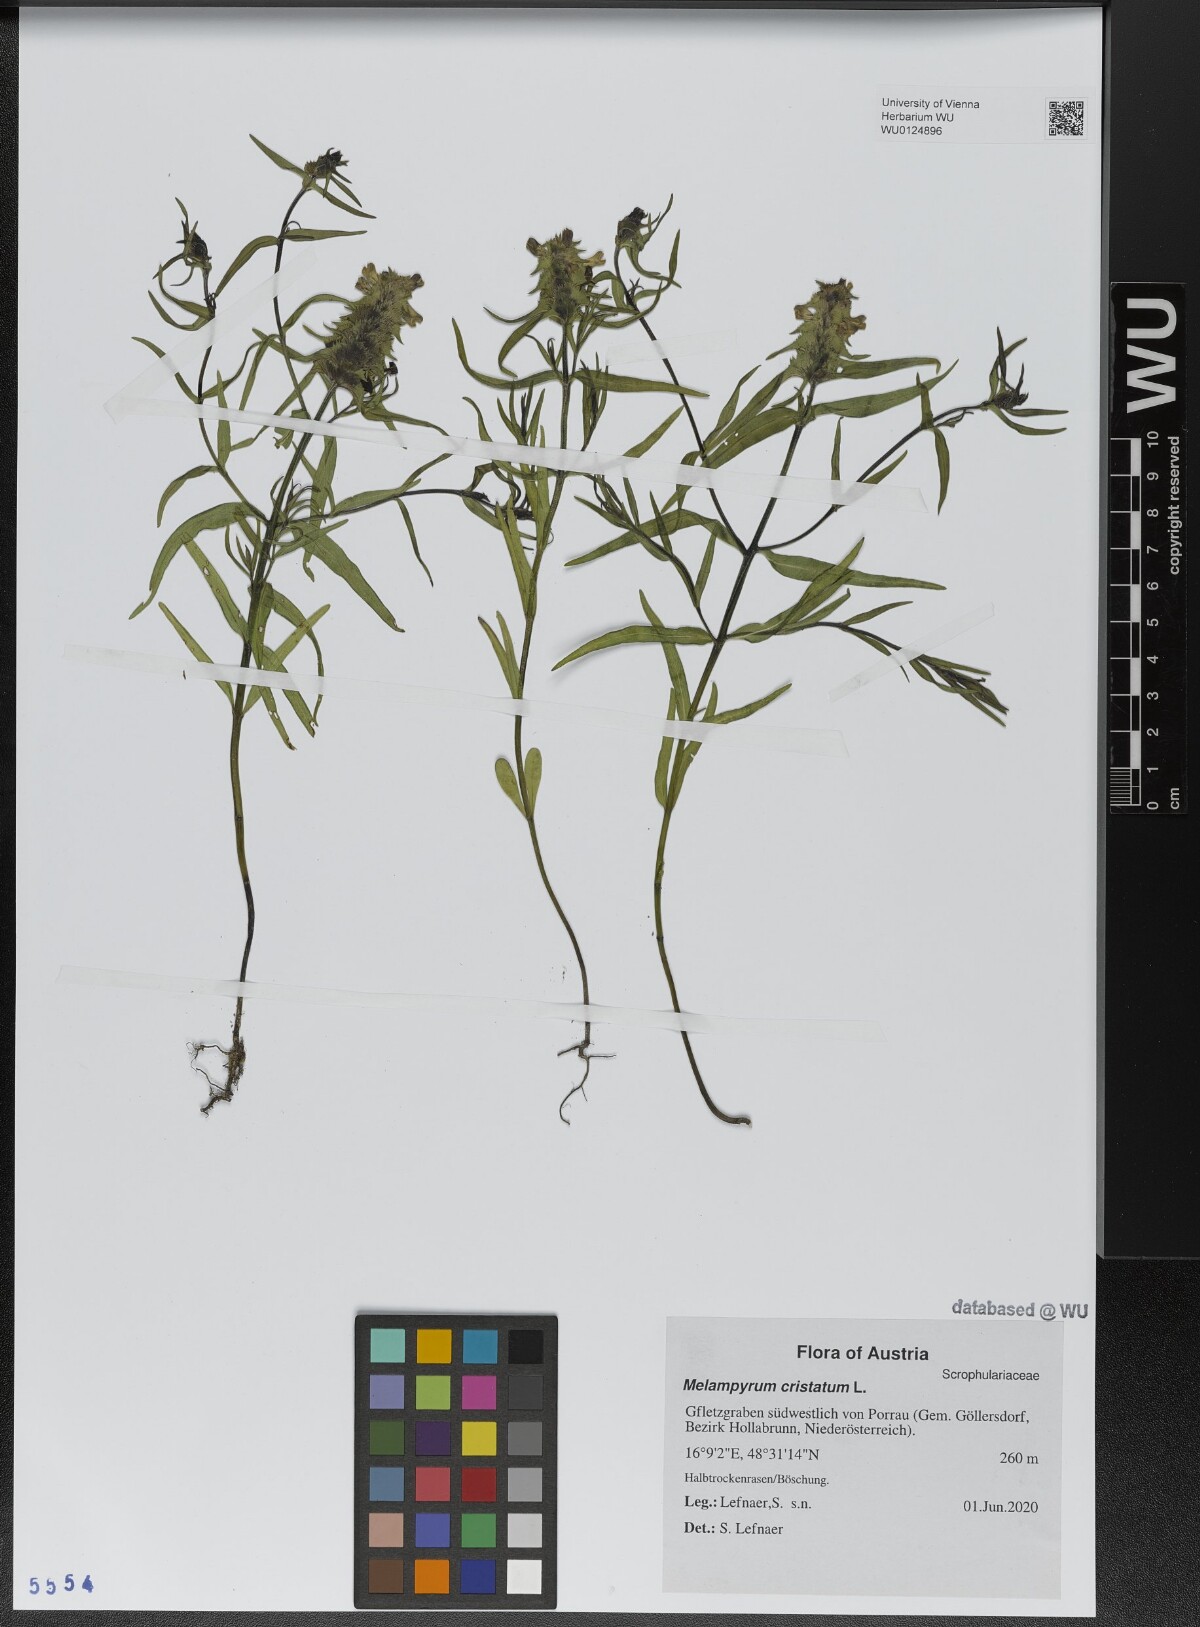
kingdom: Plantae
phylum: Tracheophyta
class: Magnoliopsida
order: Lamiales
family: Orobanchaceae
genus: Melampyrum
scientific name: Melampyrum cristatum
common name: Crested cow-wheat
